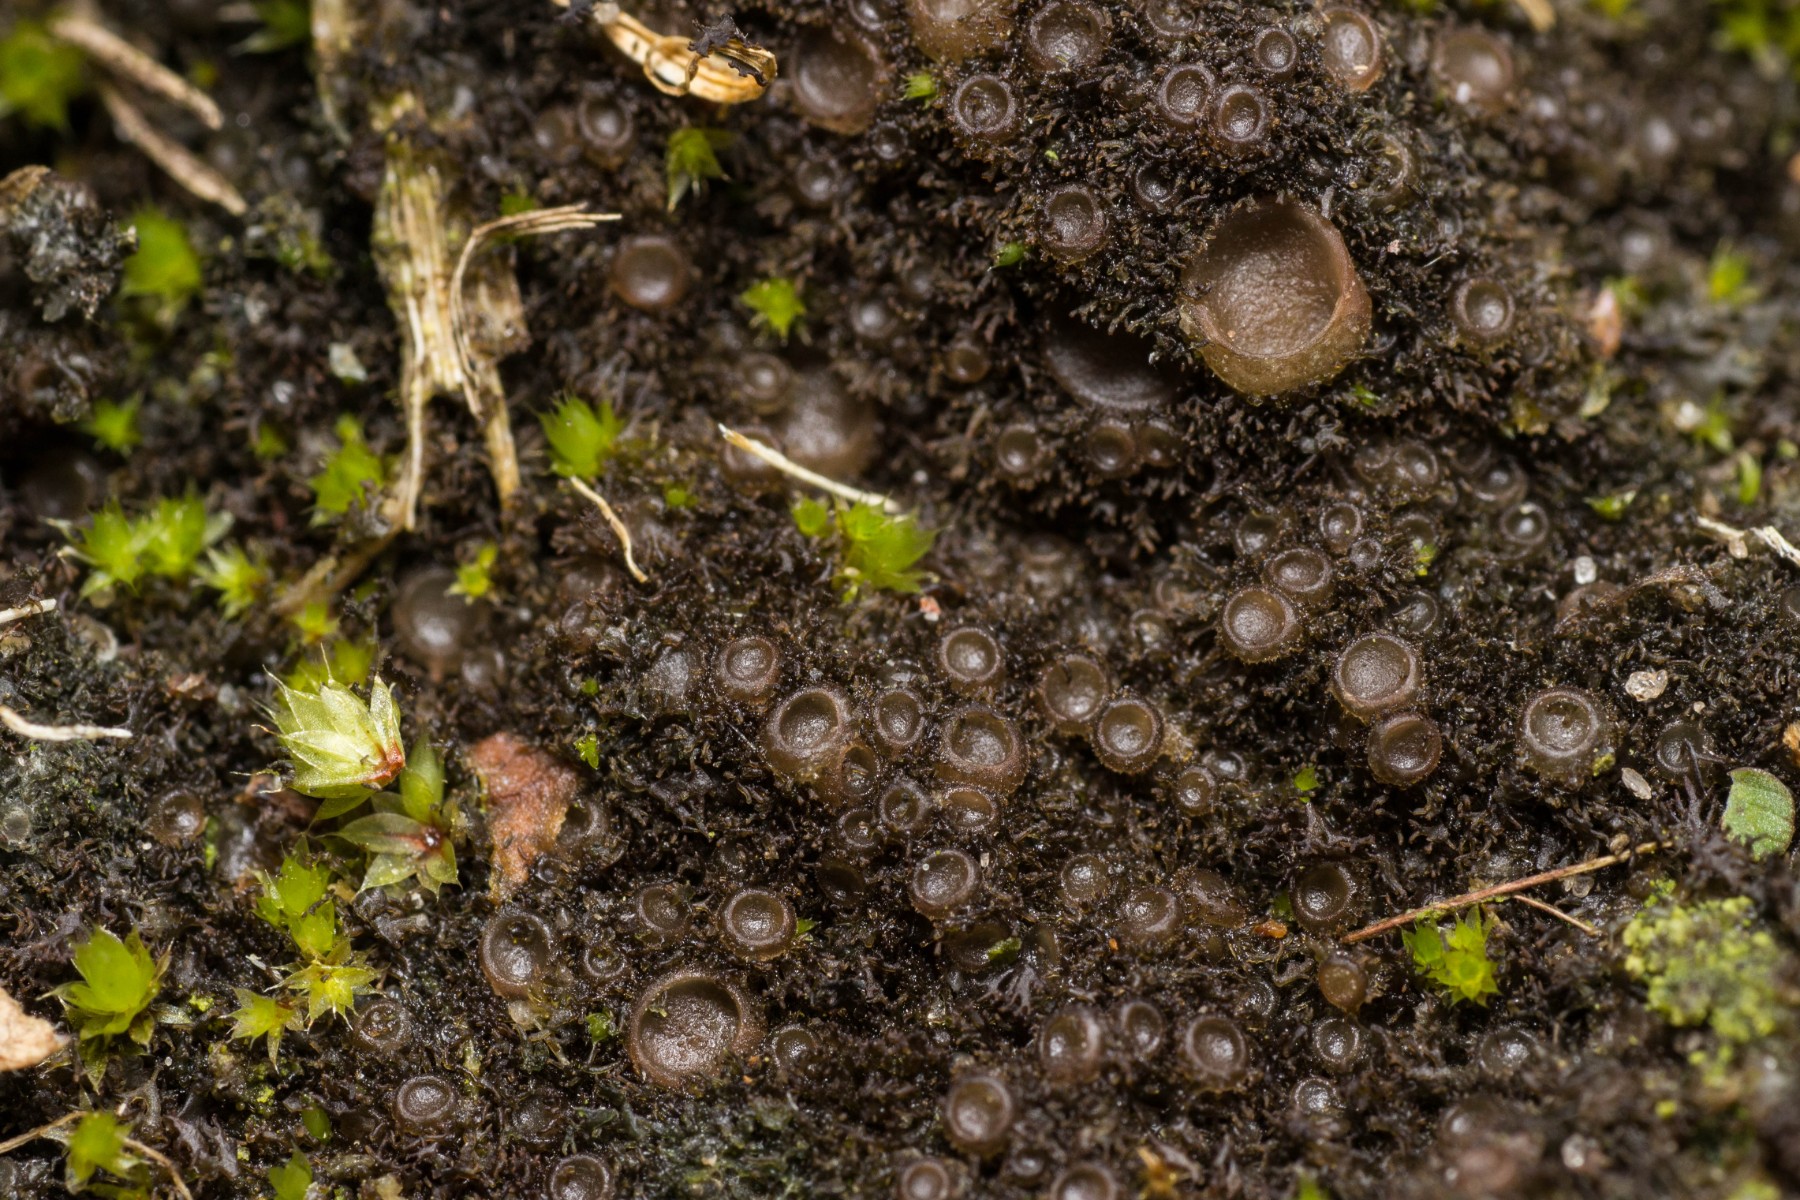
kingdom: Fungi
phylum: Ascomycota
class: Lecanoromycetes
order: Peltigerales
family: Collemataceae
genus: Scytinium
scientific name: Scytinium tenuissimum
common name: flosset hindelav
